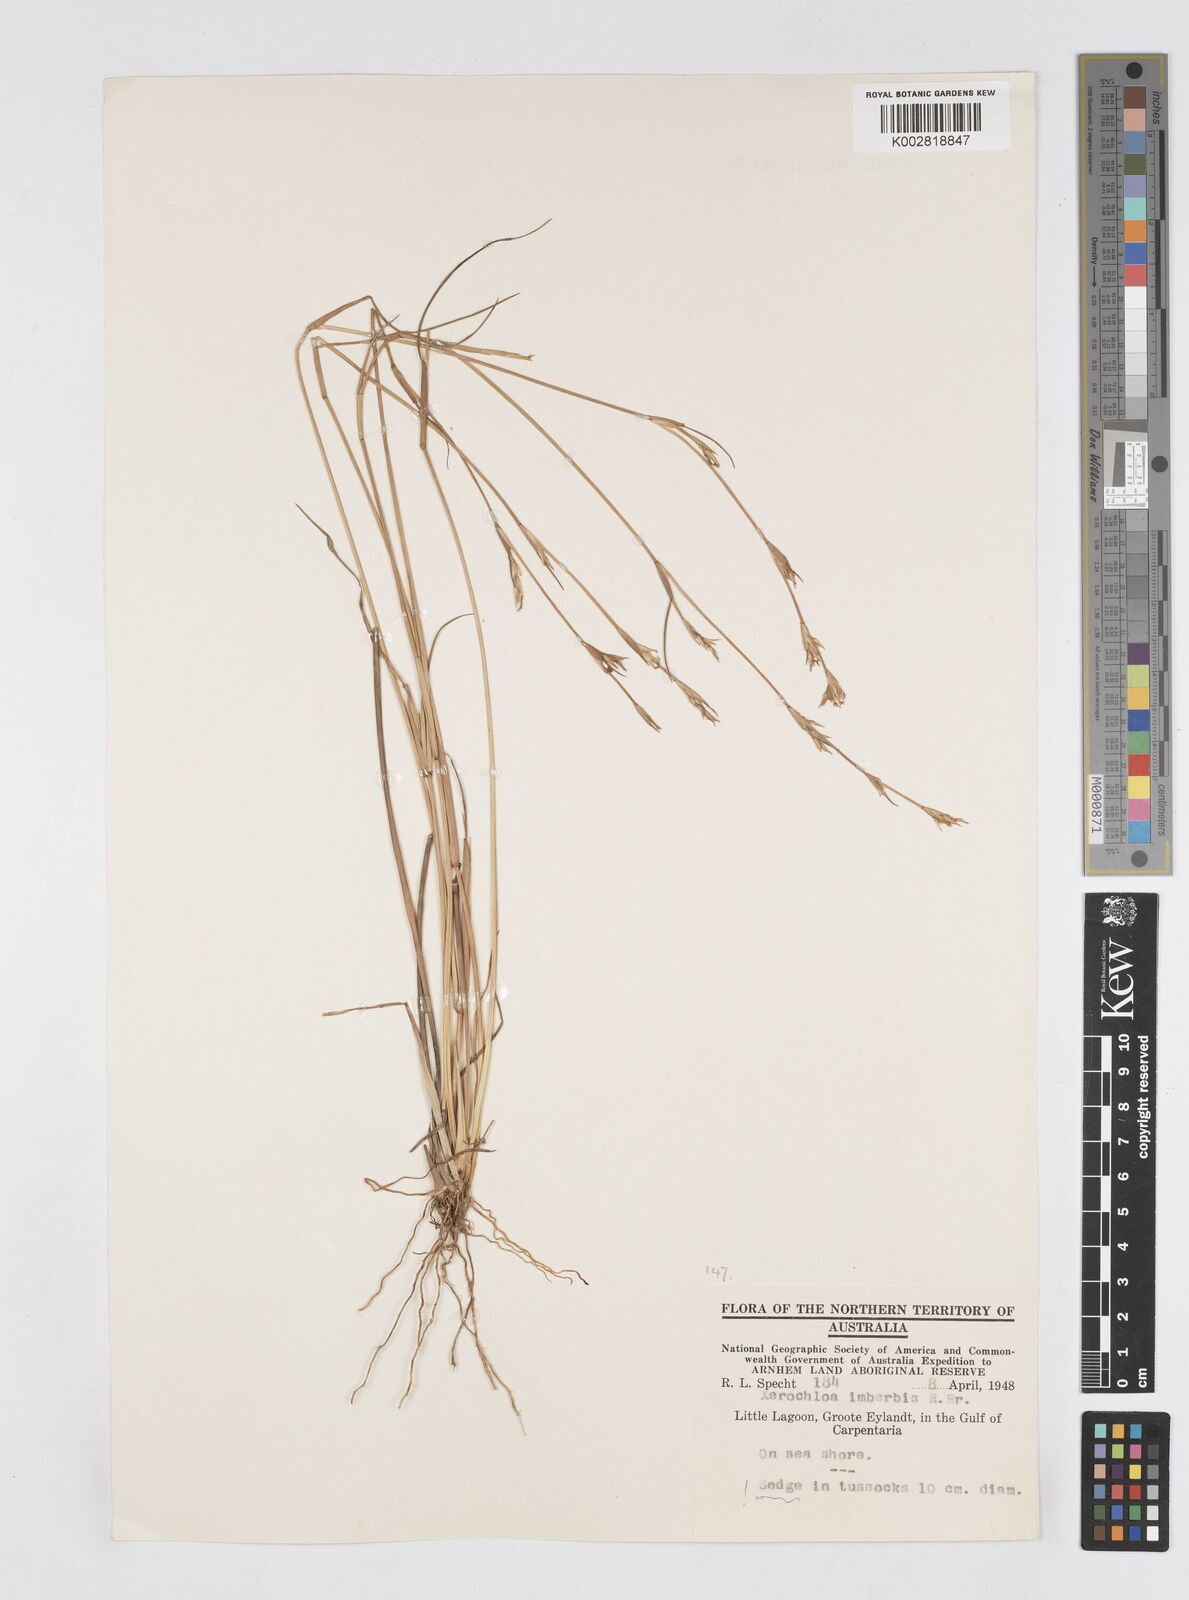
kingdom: Plantae
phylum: Tracheophyta
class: Liliopsida
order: Poales
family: Poaceae
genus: Xerochloa
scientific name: Xerochloa imberbis
